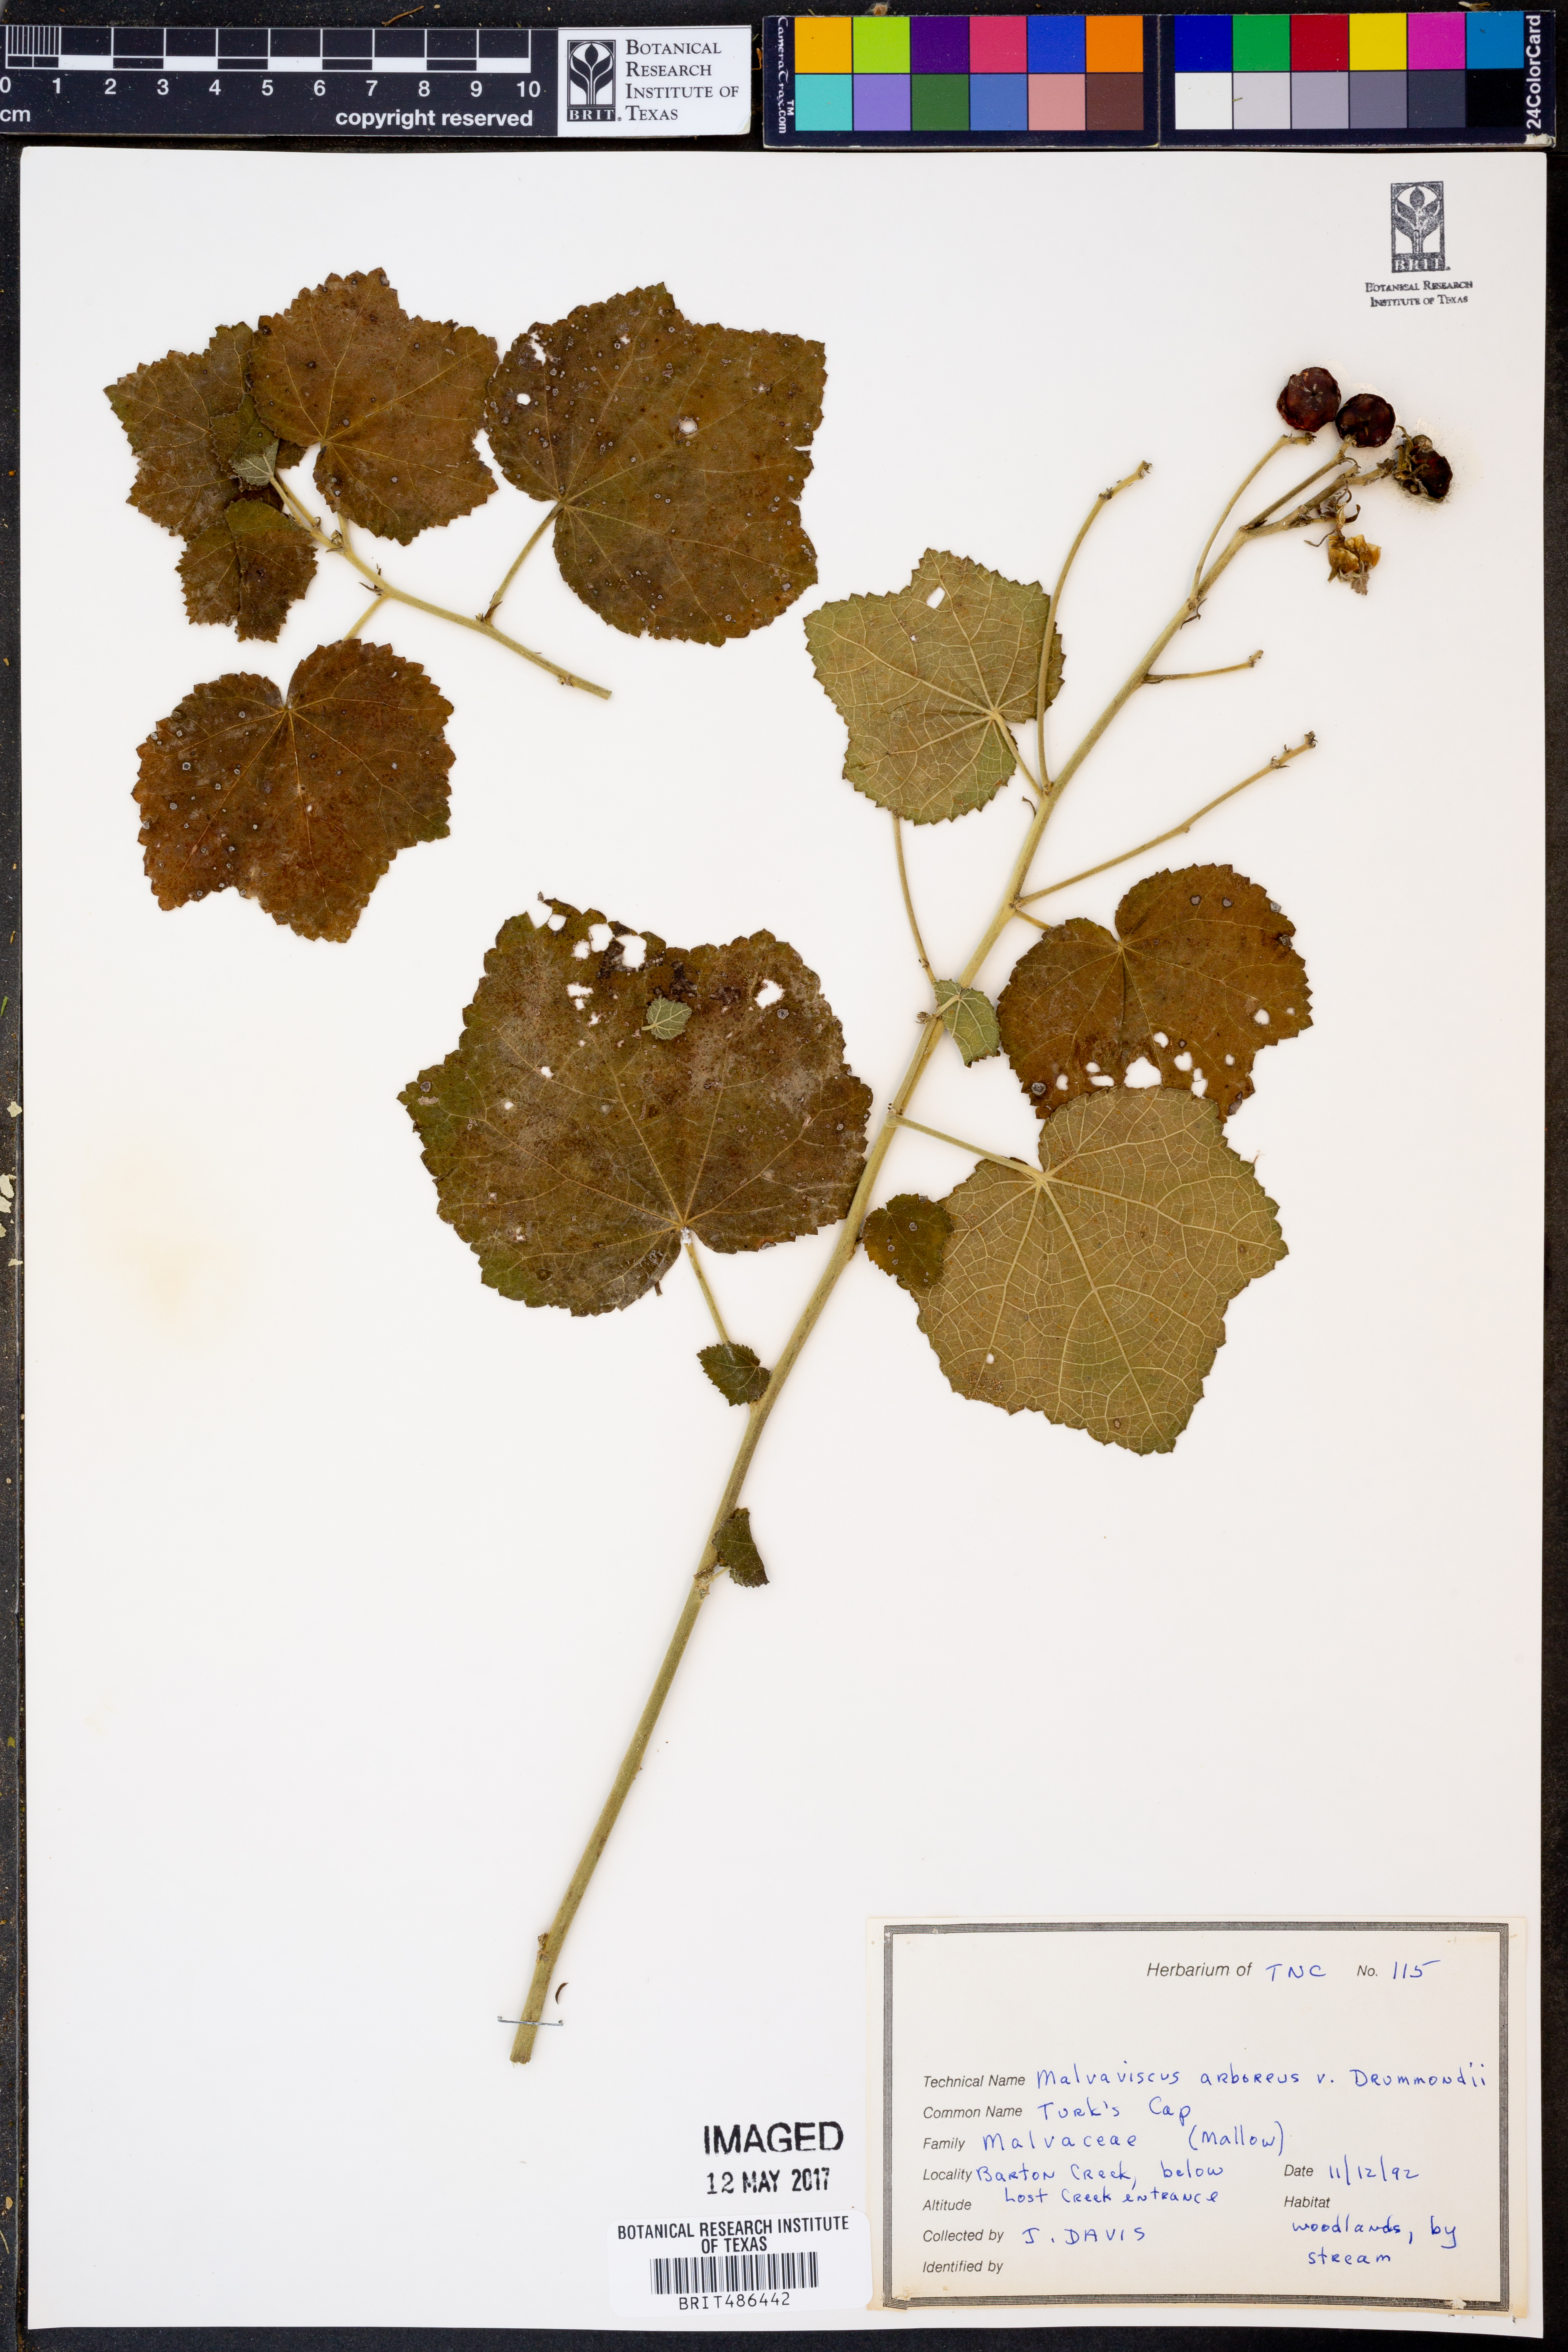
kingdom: Plantae
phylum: Tracheophyta
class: Magnoliopsida
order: Malvales
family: Malvaceae
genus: Malvaviscus
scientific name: Malvaviscus arboreus
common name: Wax mallow
